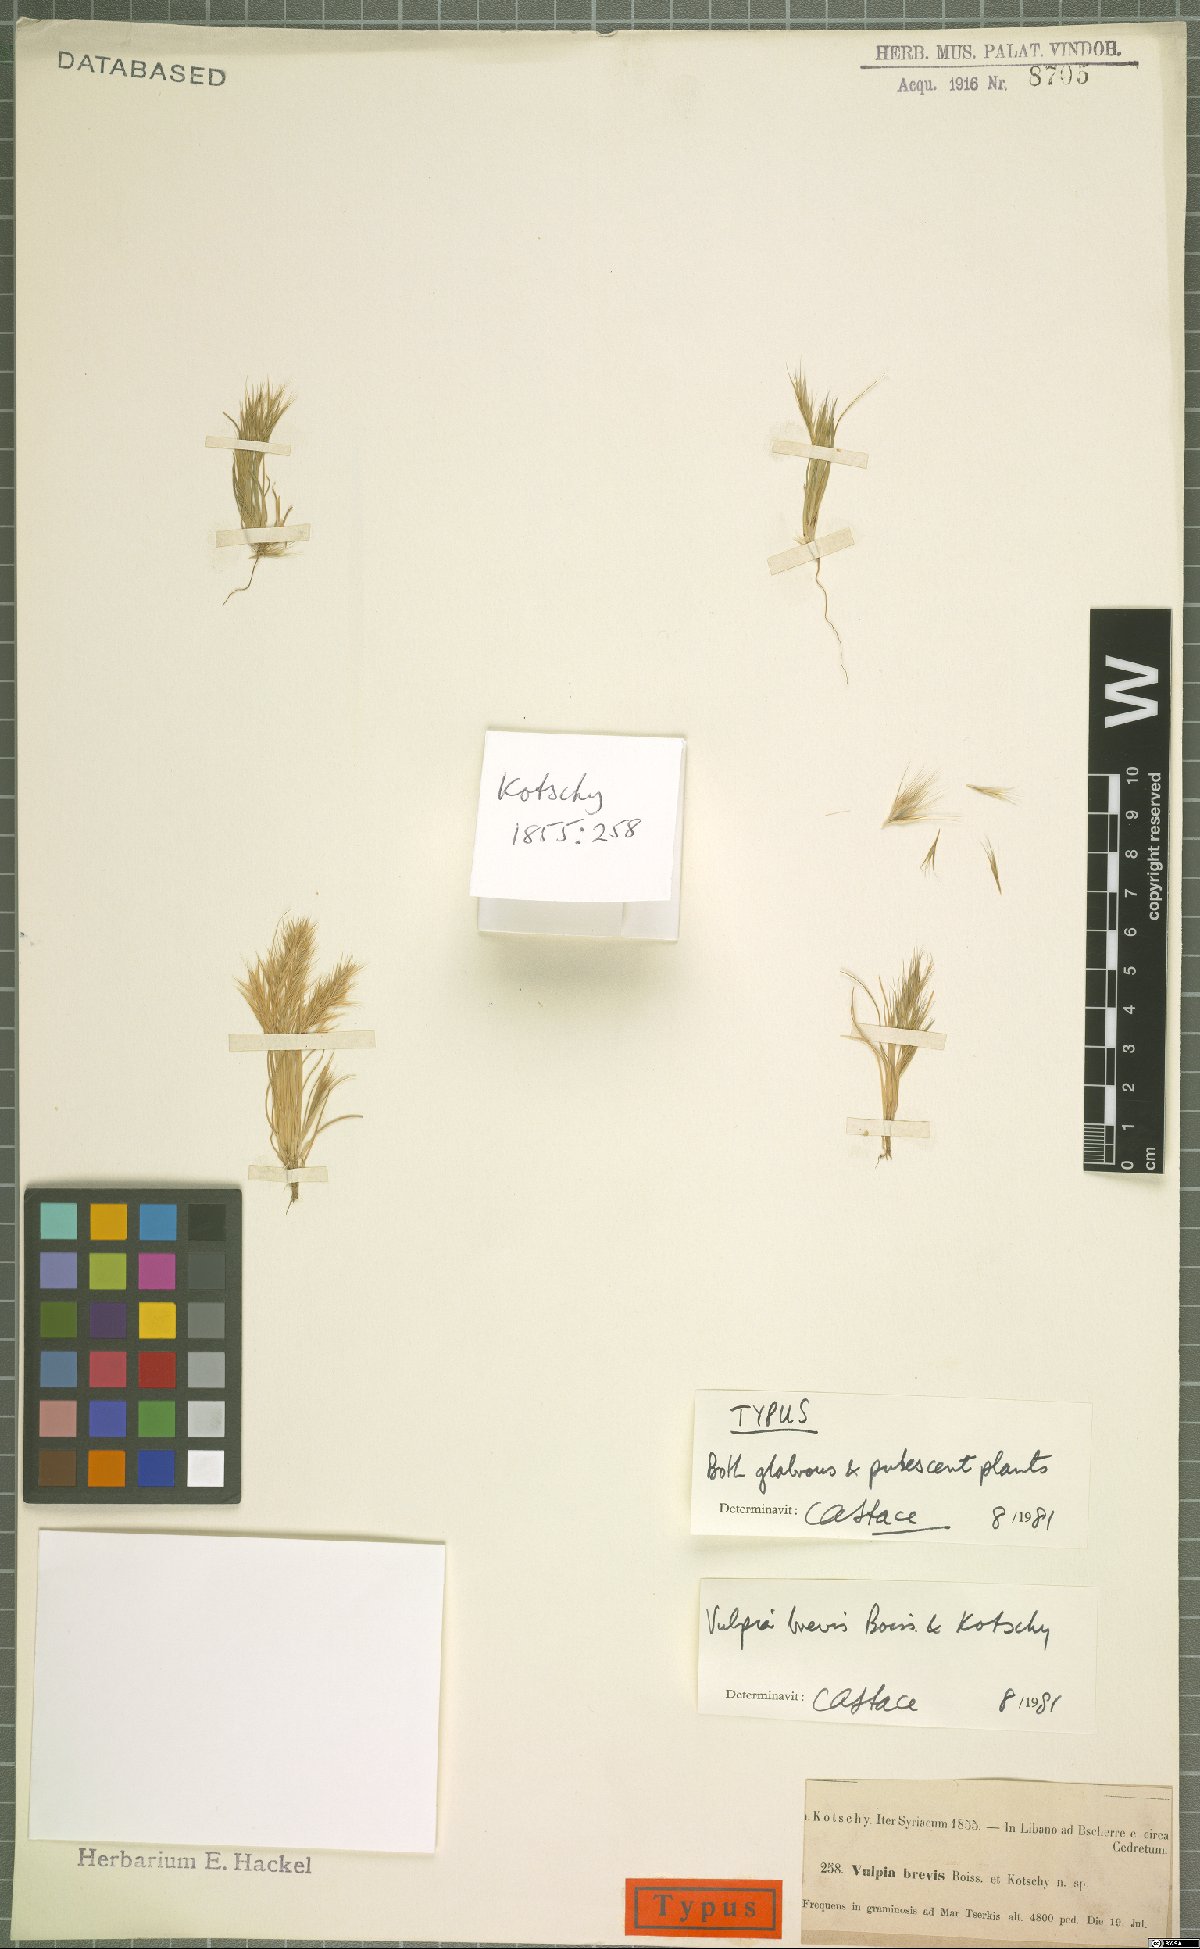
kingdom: Plantae
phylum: Tracheophyta
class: Liliopsida
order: Poales
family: Poaceae
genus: Festuca
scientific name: Festuca brevis
